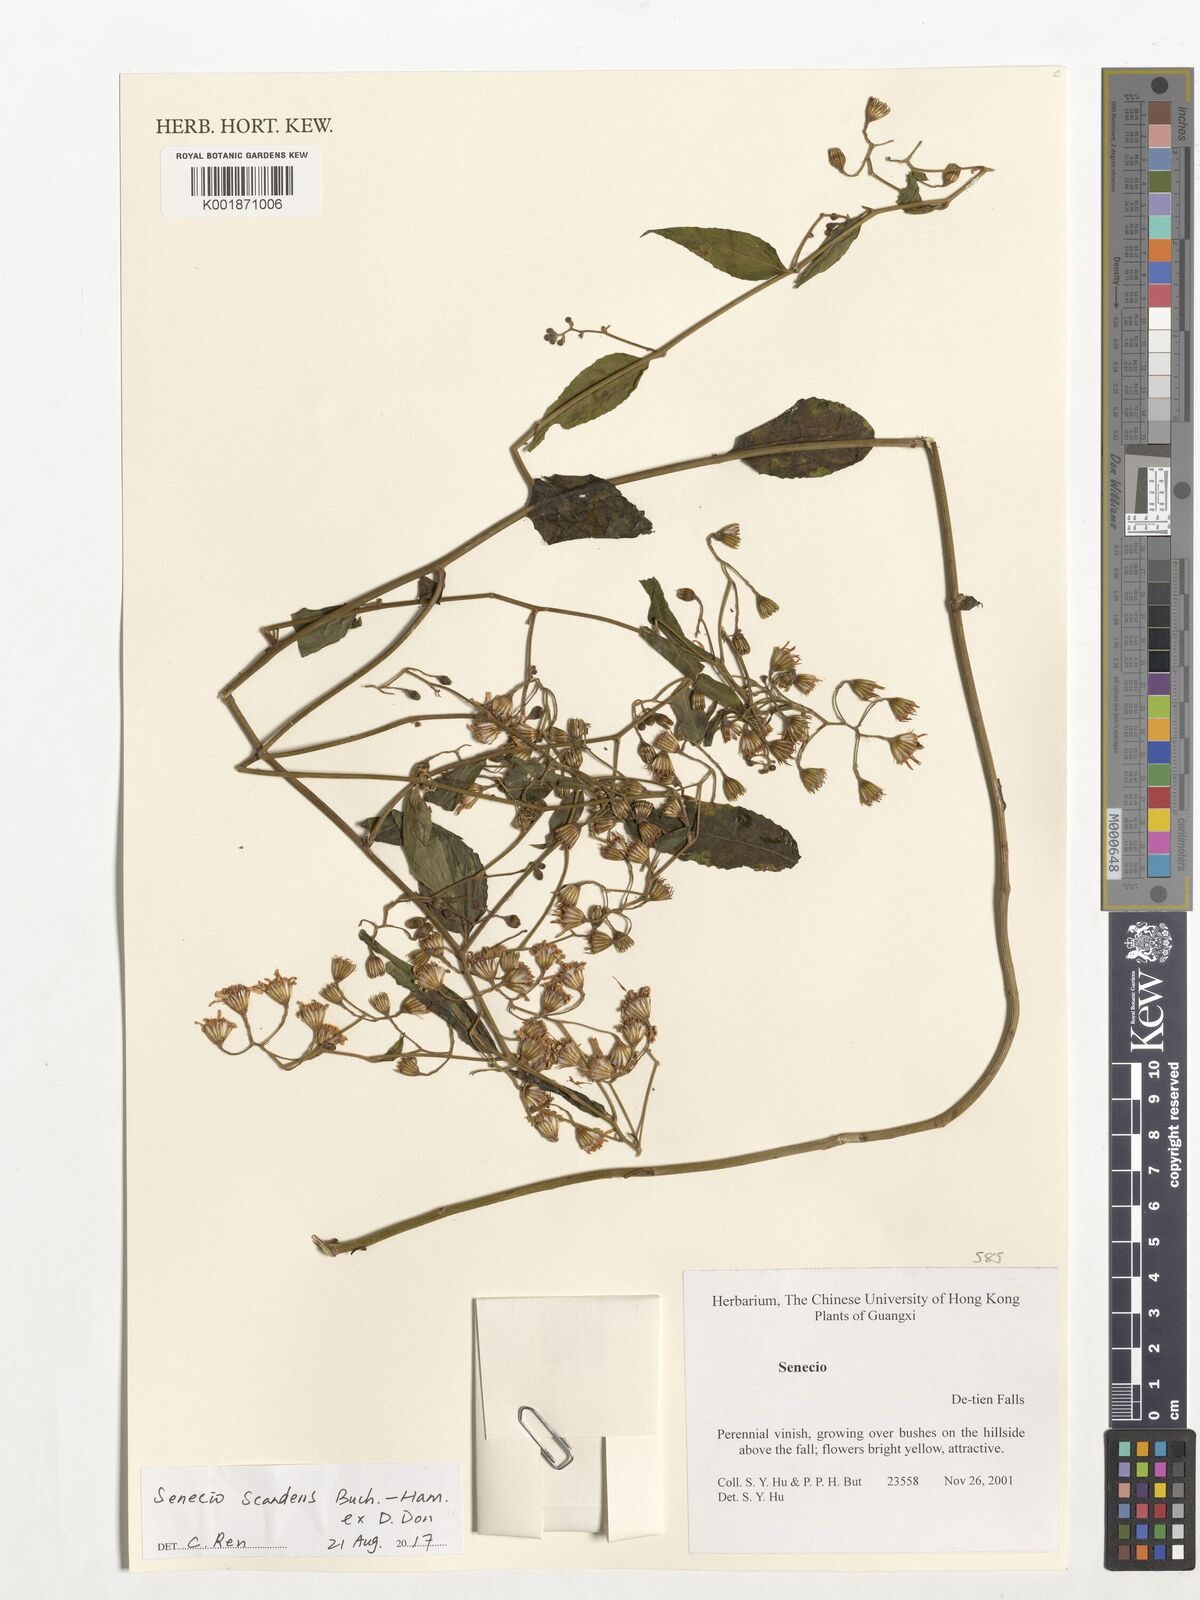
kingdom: Plantae
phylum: Tracheophyta
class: Magnoliopsida
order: Asterales
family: Asteraceae
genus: Senecio
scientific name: Senecio scandens
